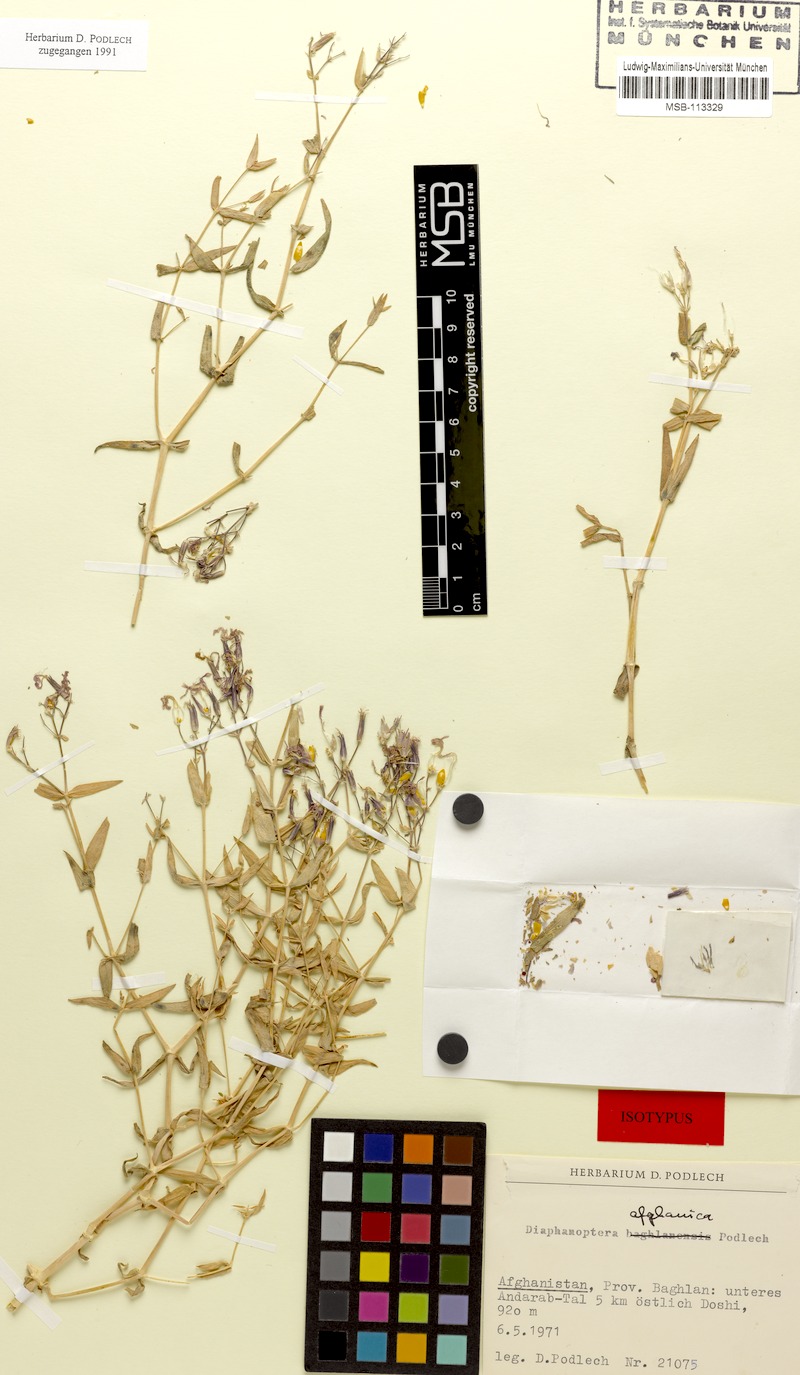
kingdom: Plantae
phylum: Tracheophyta
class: Magnoliopsida
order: Caryophyllales
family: Caryophyllaceae
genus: Acanthophyllum
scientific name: Acanthophyllum afghanicum
